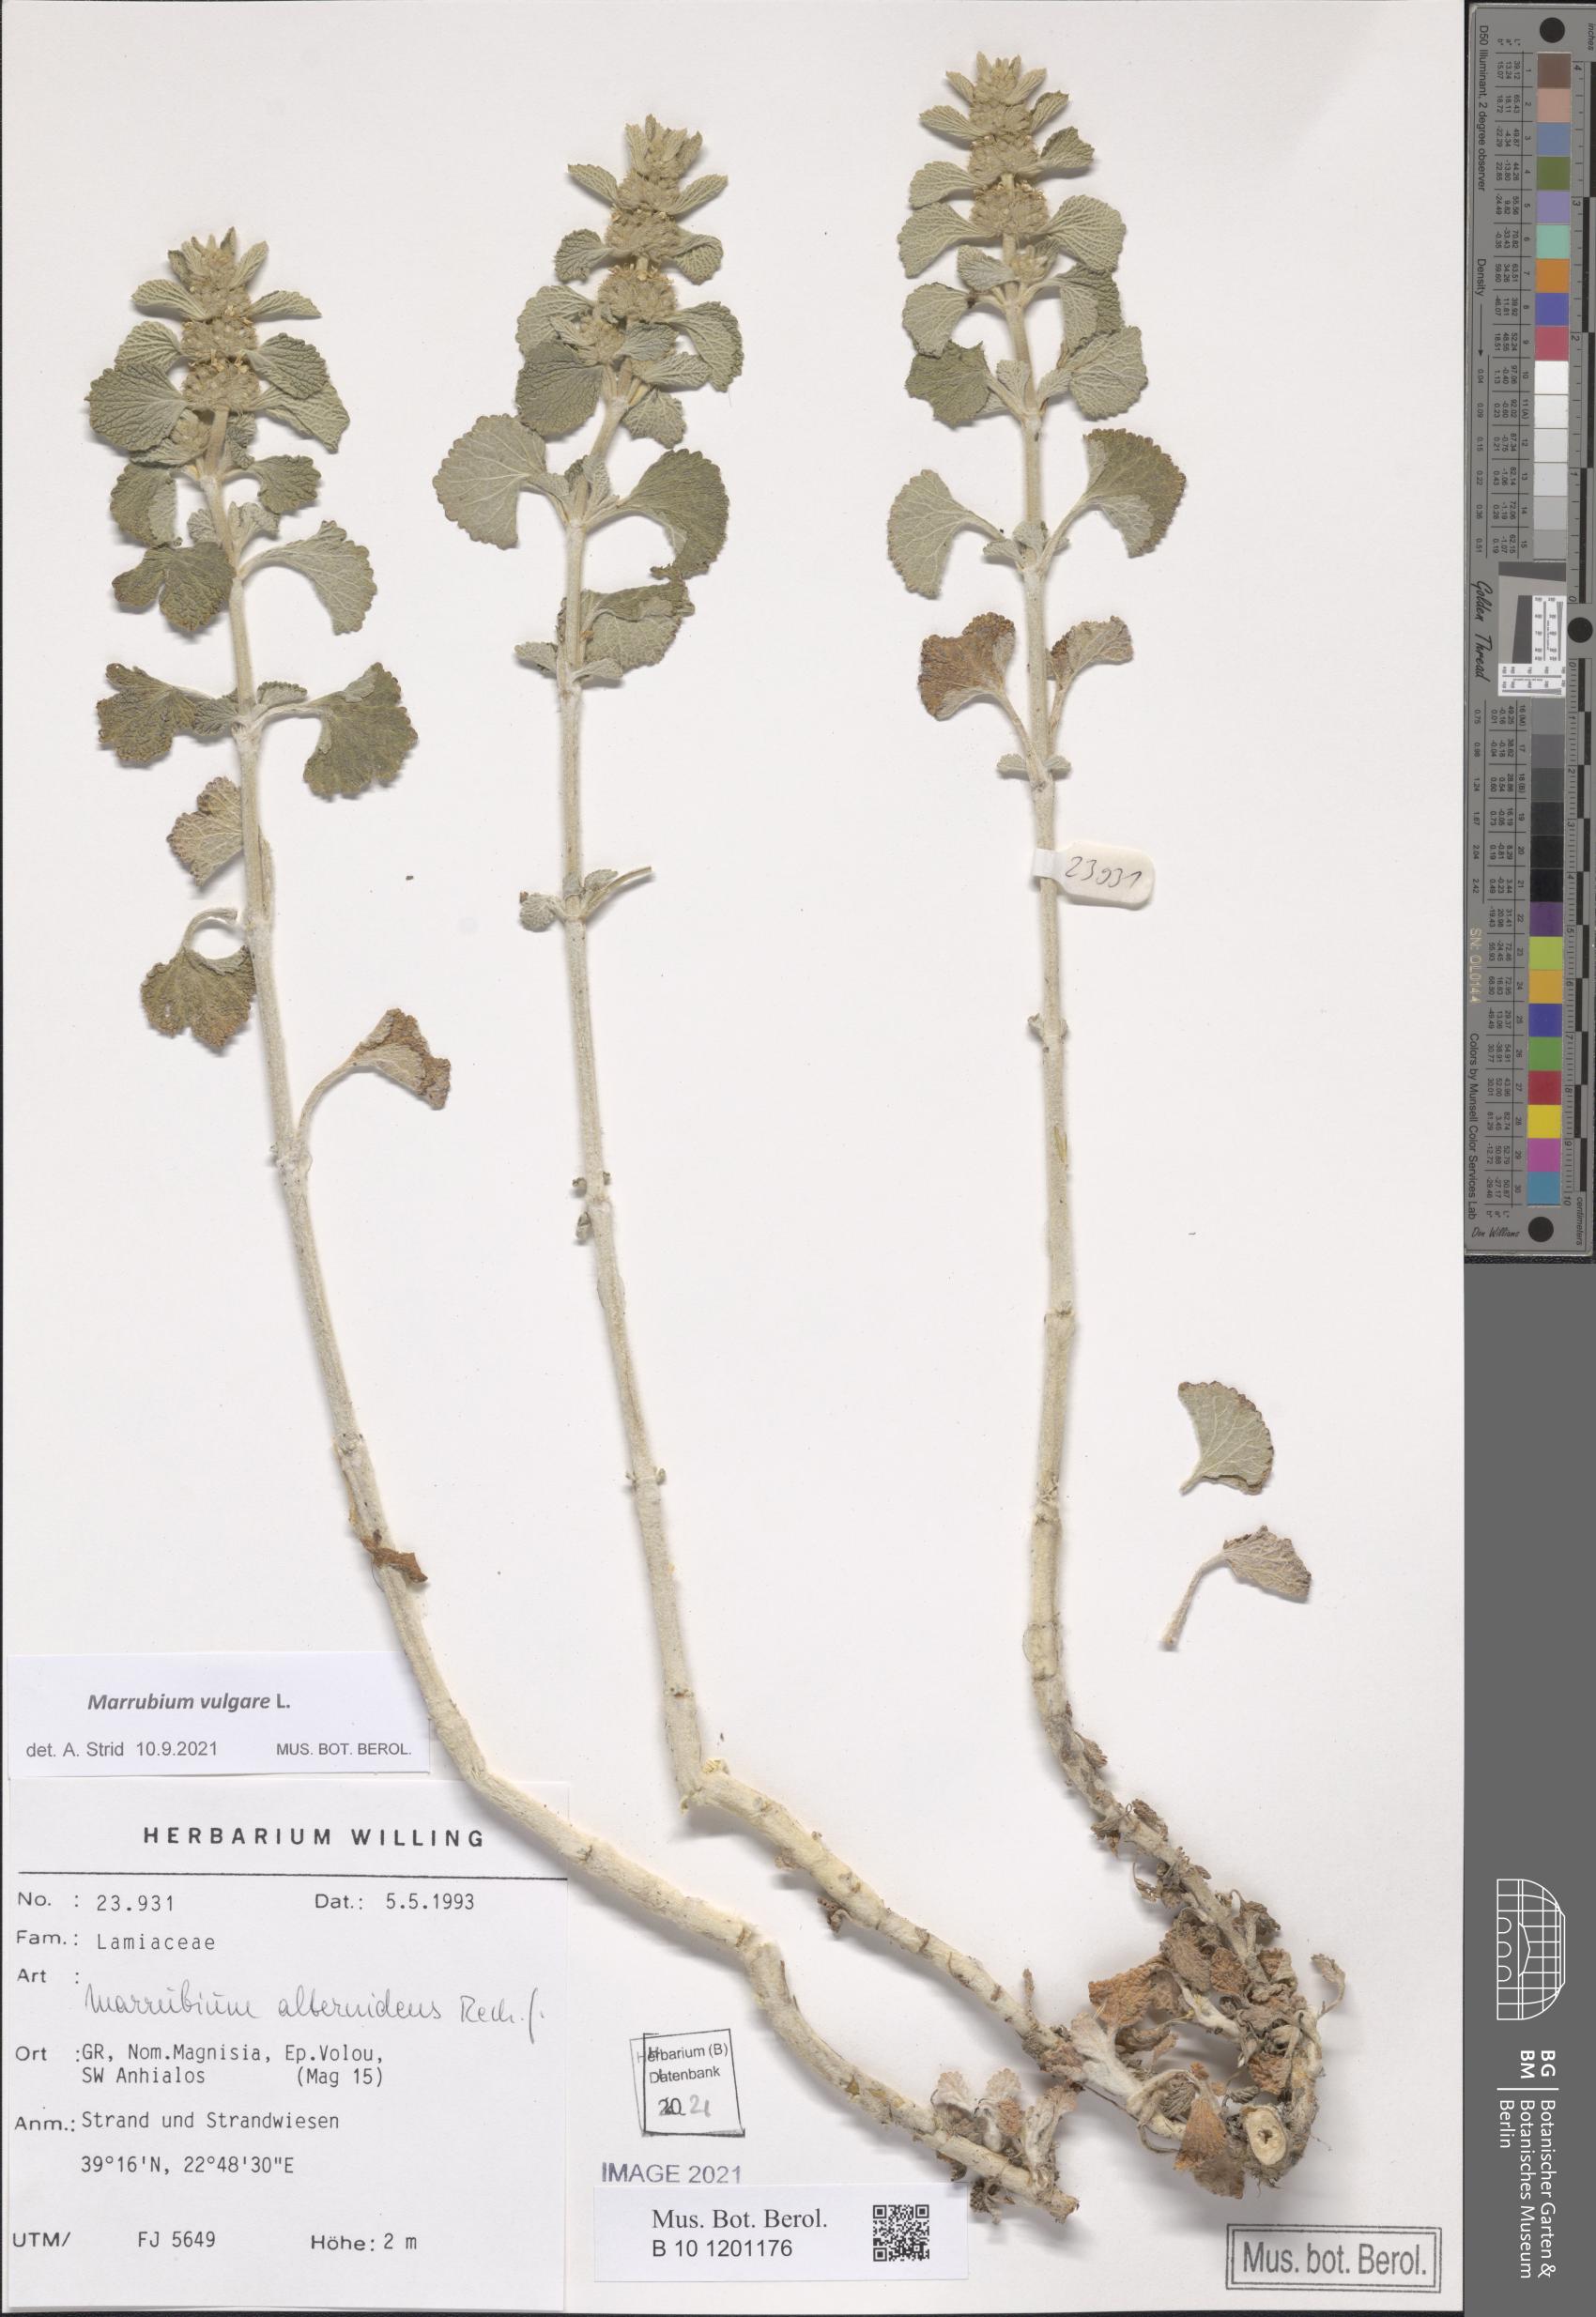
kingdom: Plantae
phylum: Tracheophyta
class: Magnoliopsida
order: Lamiales
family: Lamiaceae
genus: Marrubium
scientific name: Marrubium vulgare
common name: Horehound
